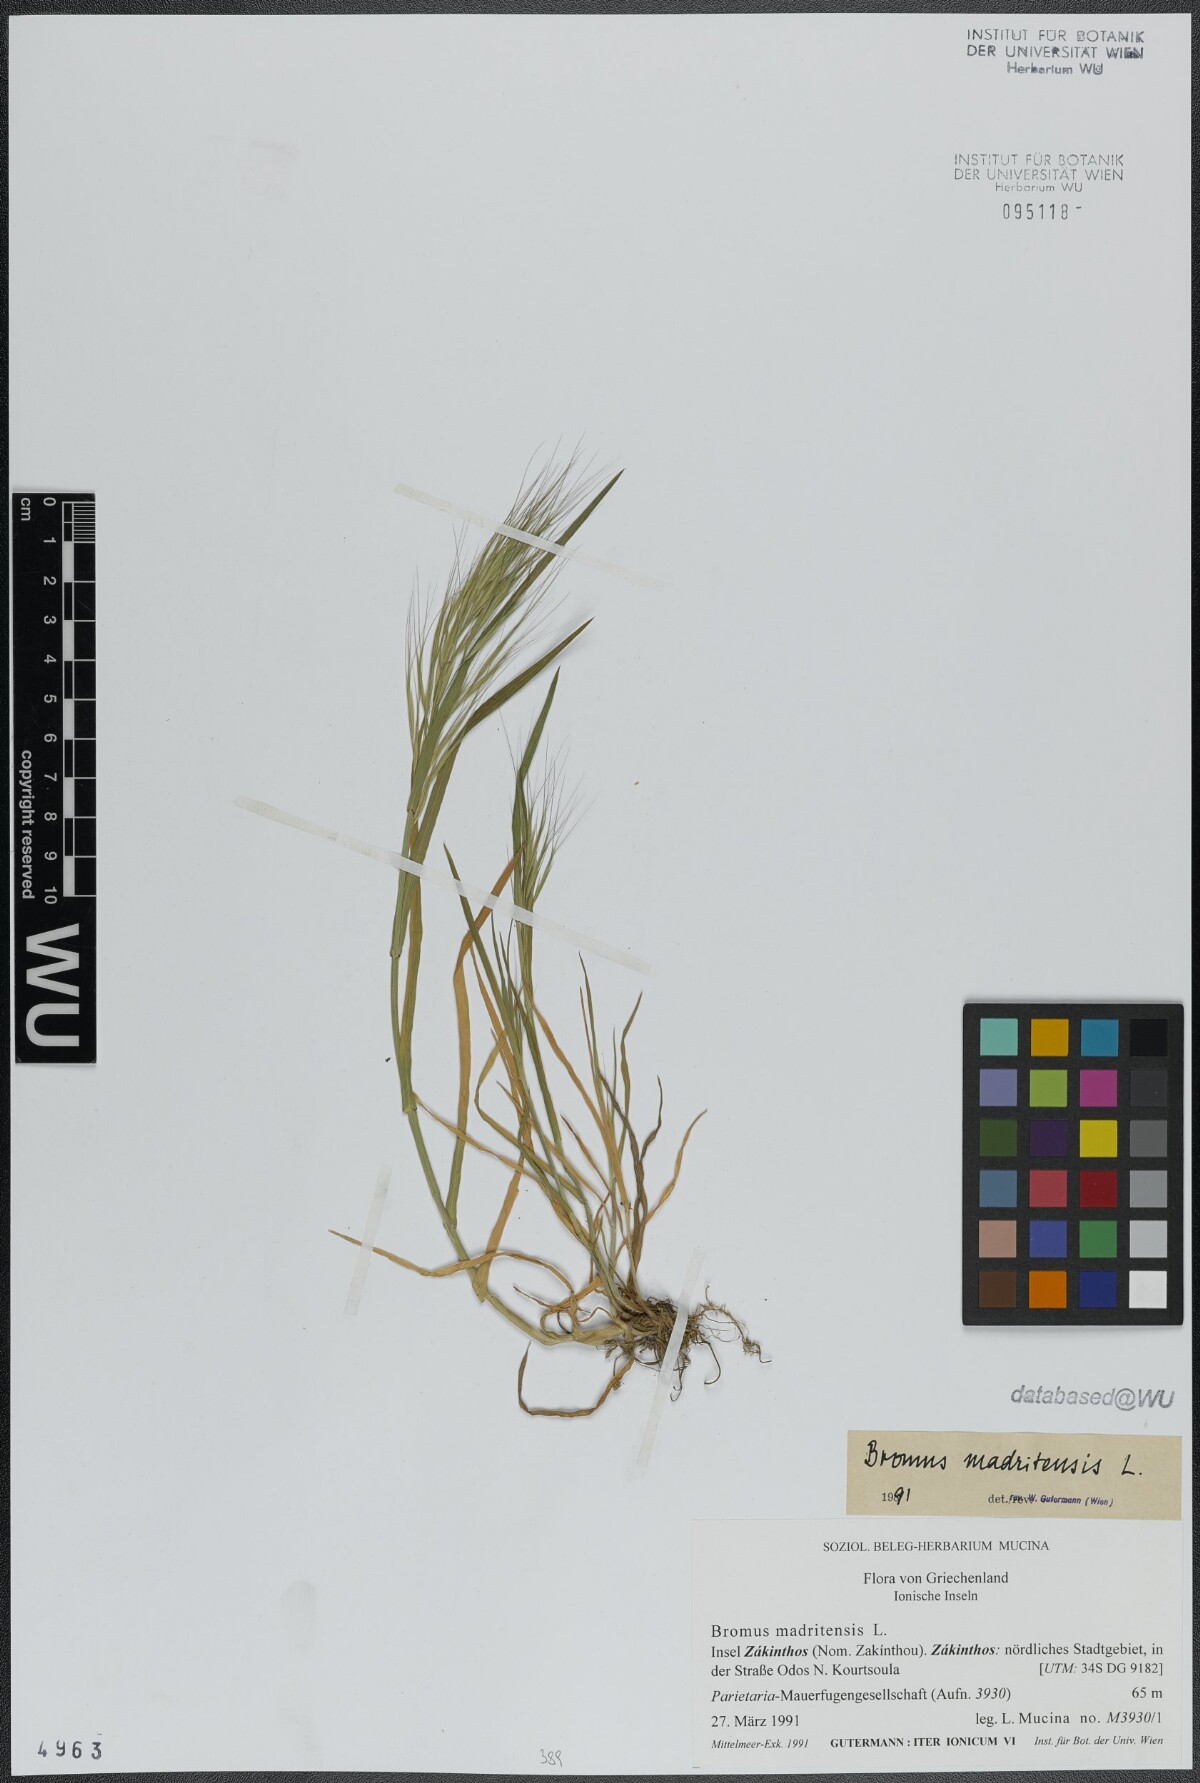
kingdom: Plantae
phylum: Tracheophyta
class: Liliopsida
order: Poales
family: Poaceae
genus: Bromus
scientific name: Bromus madritensis
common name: Compact brome
